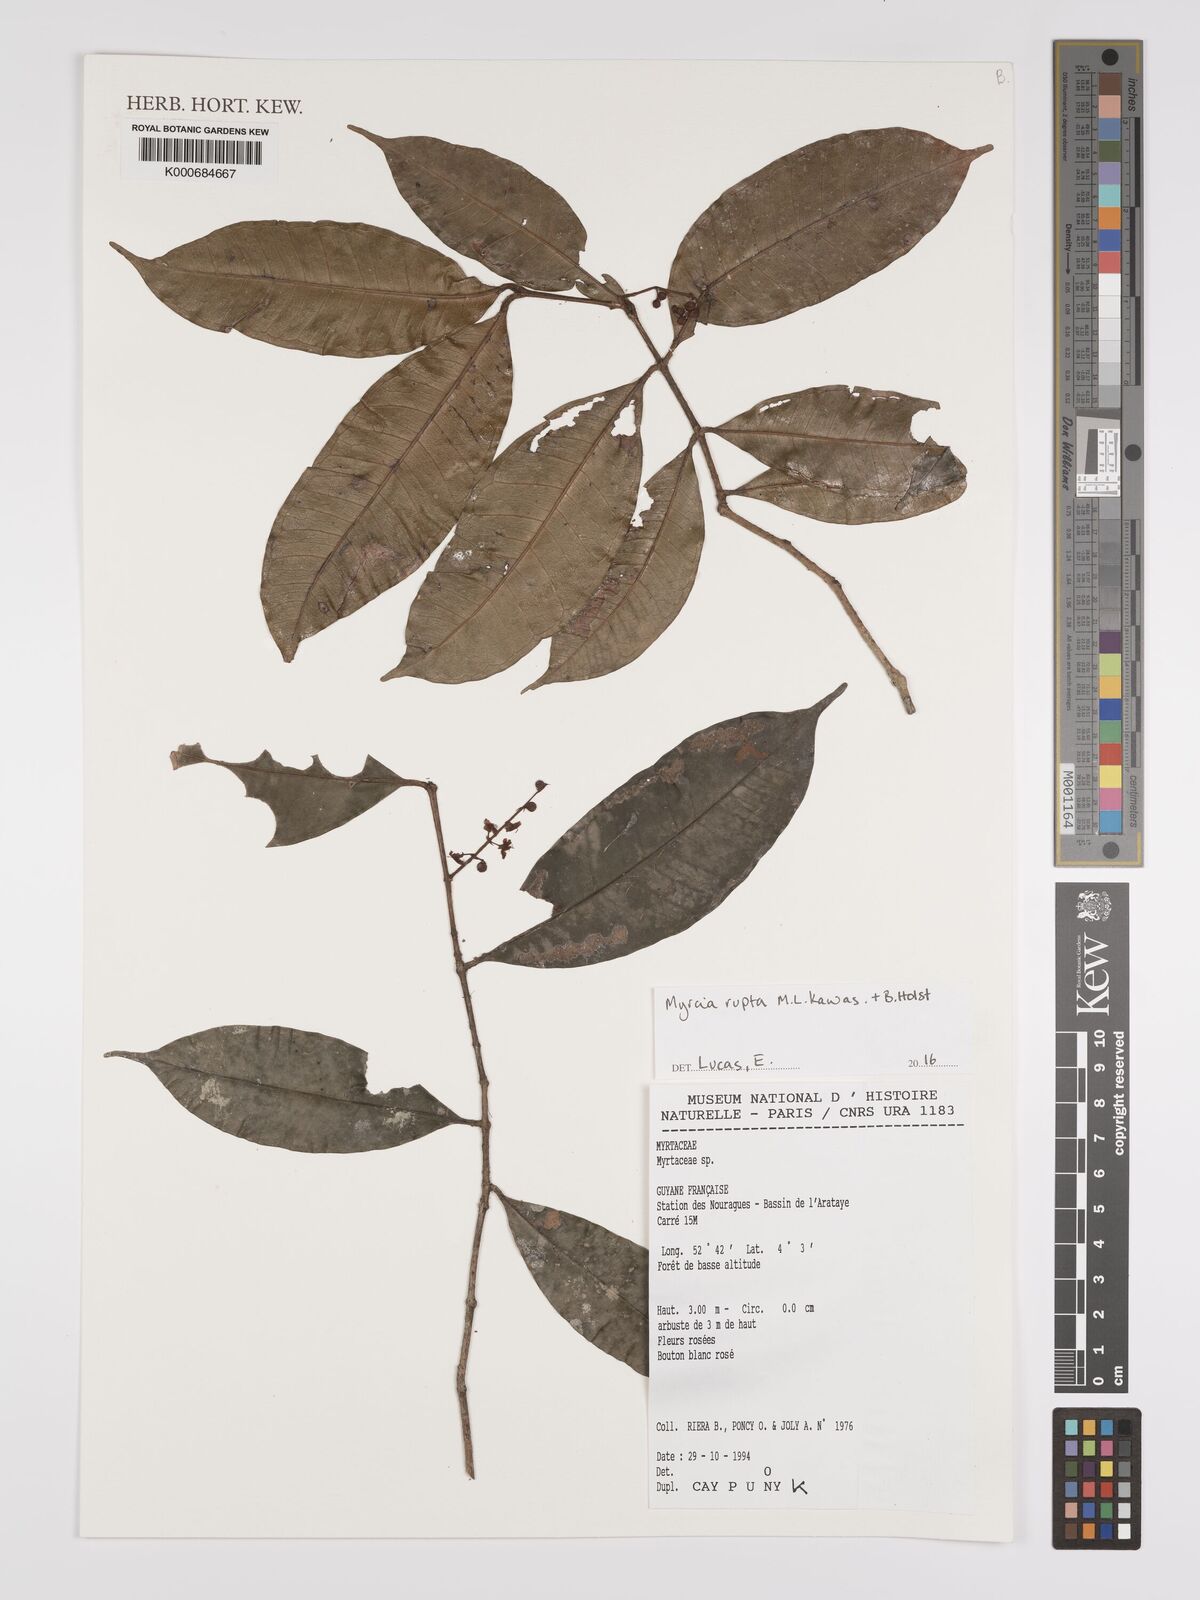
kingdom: Plantae
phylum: Tracheophyta
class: Magnoliopsida
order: Myrtales
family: Myrtaceae
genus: Myrcia
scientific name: Myrcia rupta
